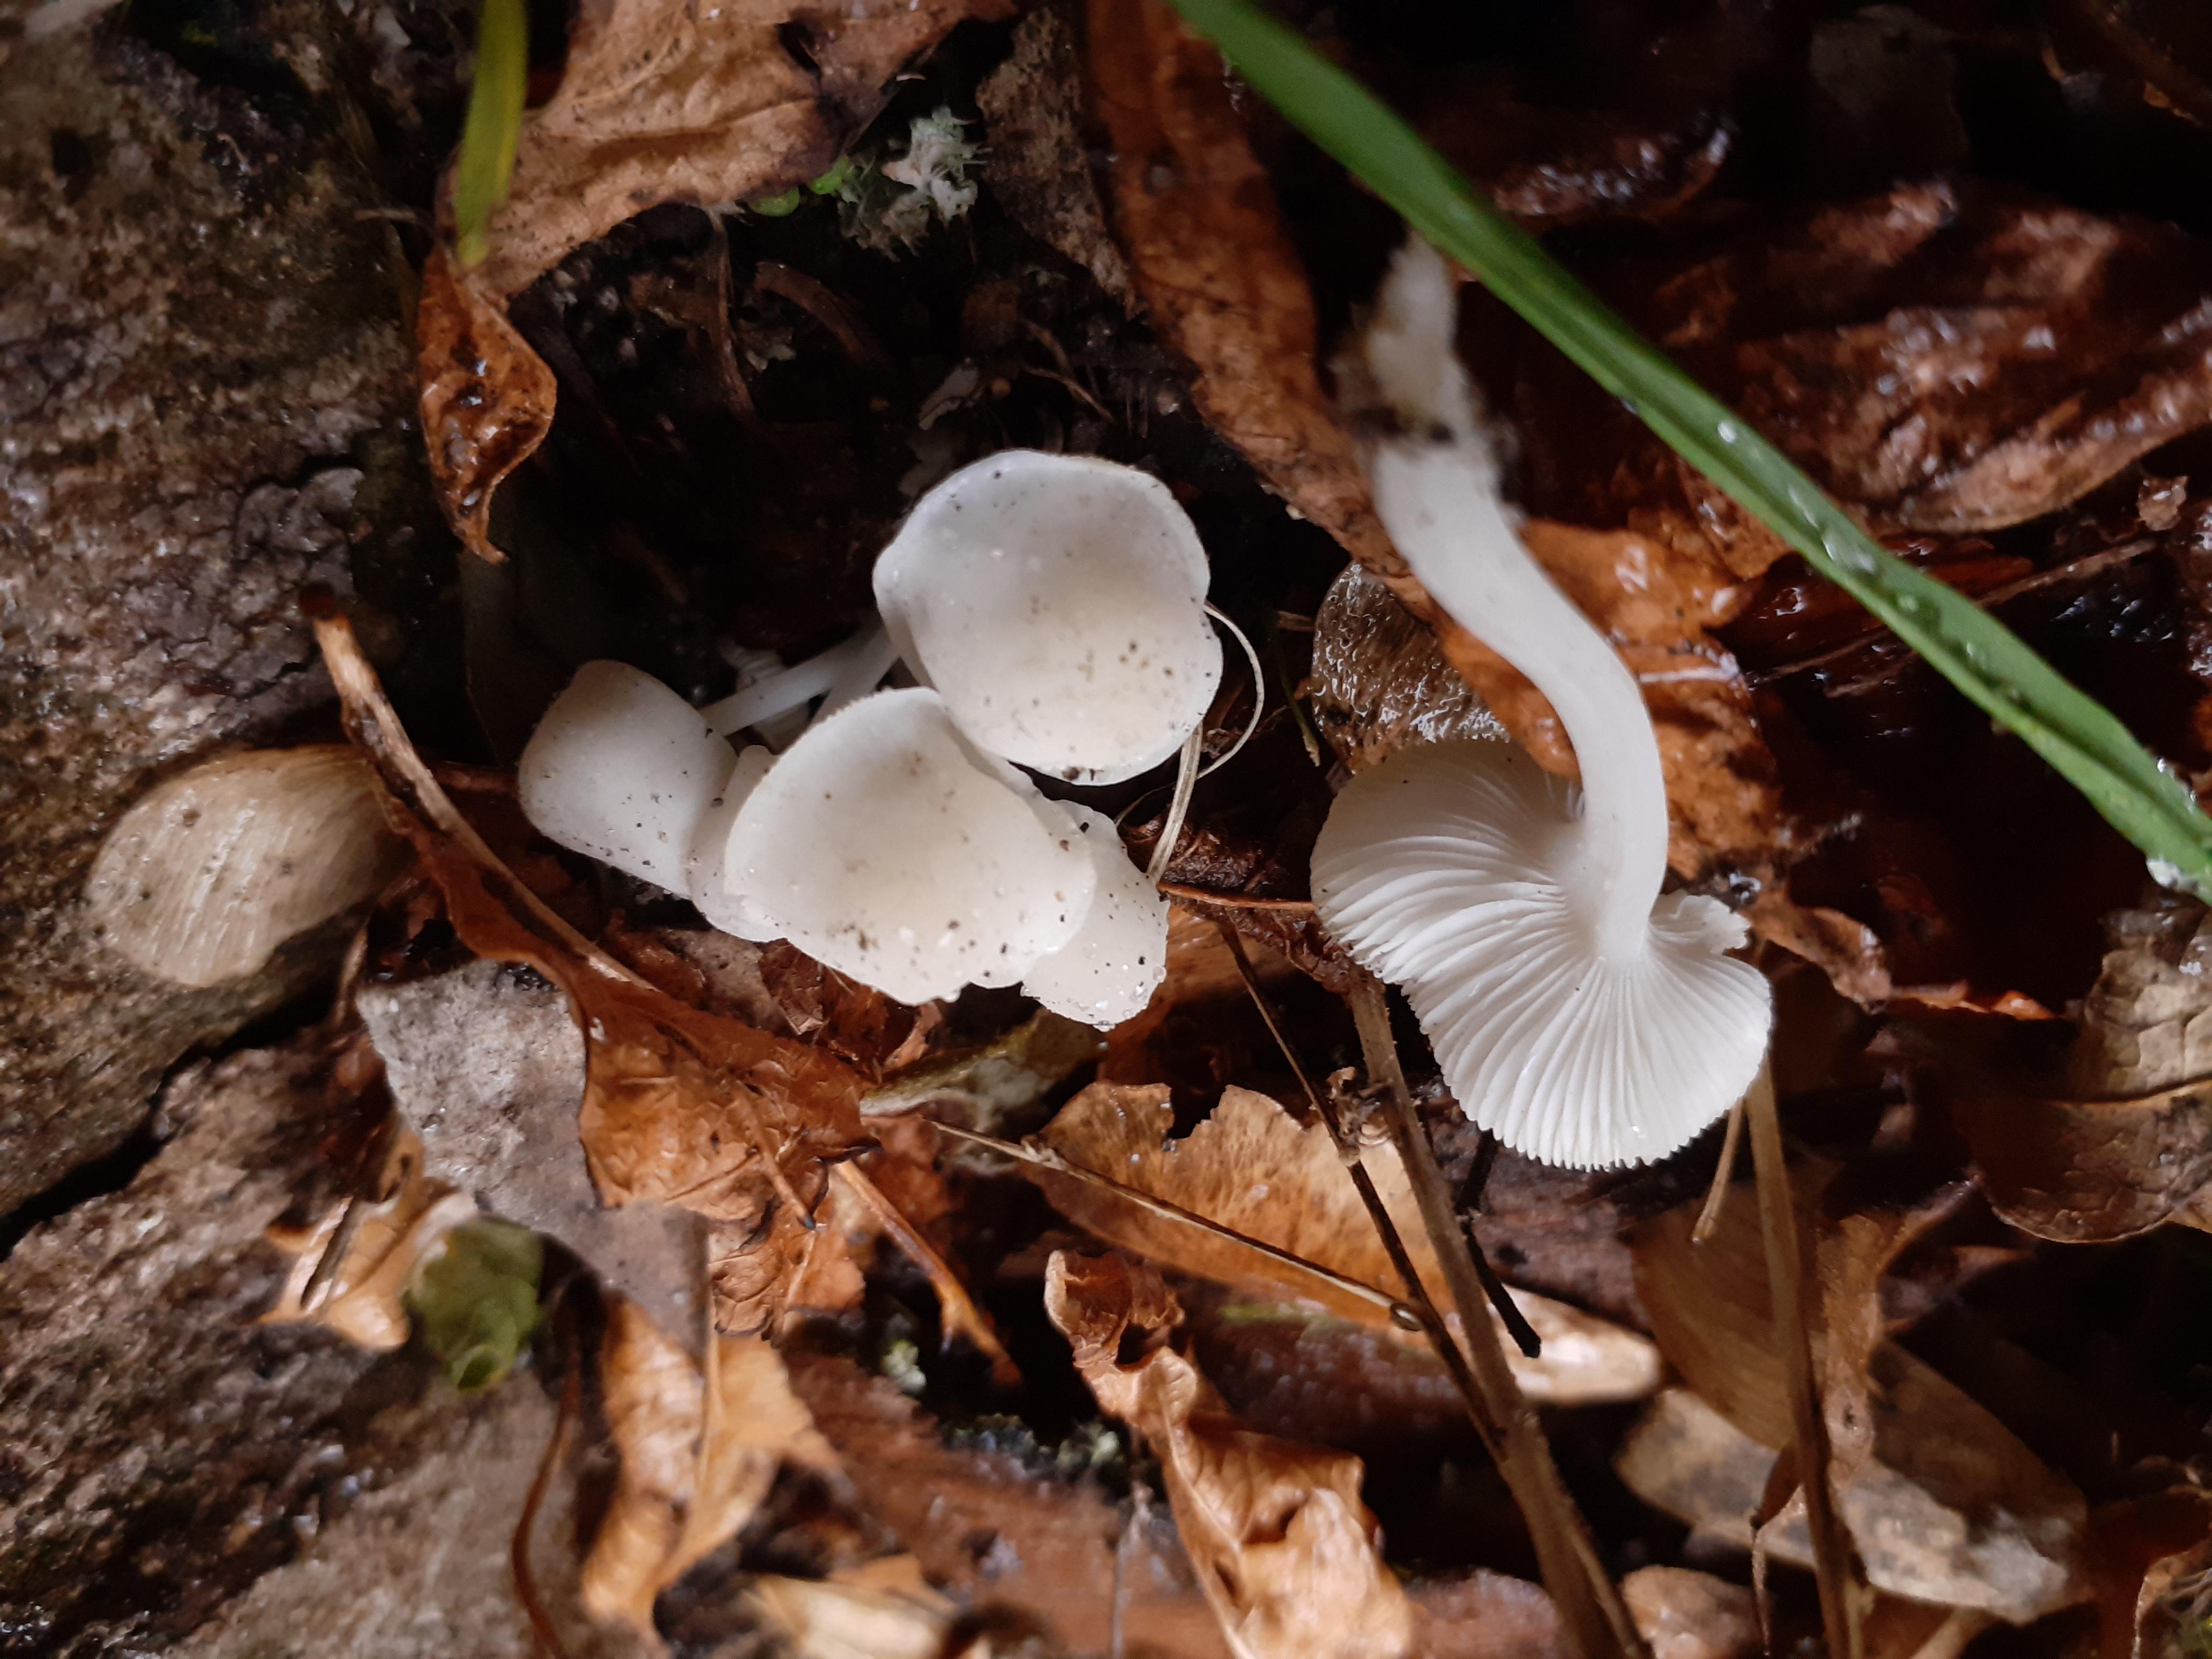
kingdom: Fungi
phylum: Basidiomycota
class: Agaricomycetes
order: Agaricales
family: Mycenaceae
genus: Hemimycena
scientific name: Hemimycena cucullata
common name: tætbladet huesvamp
